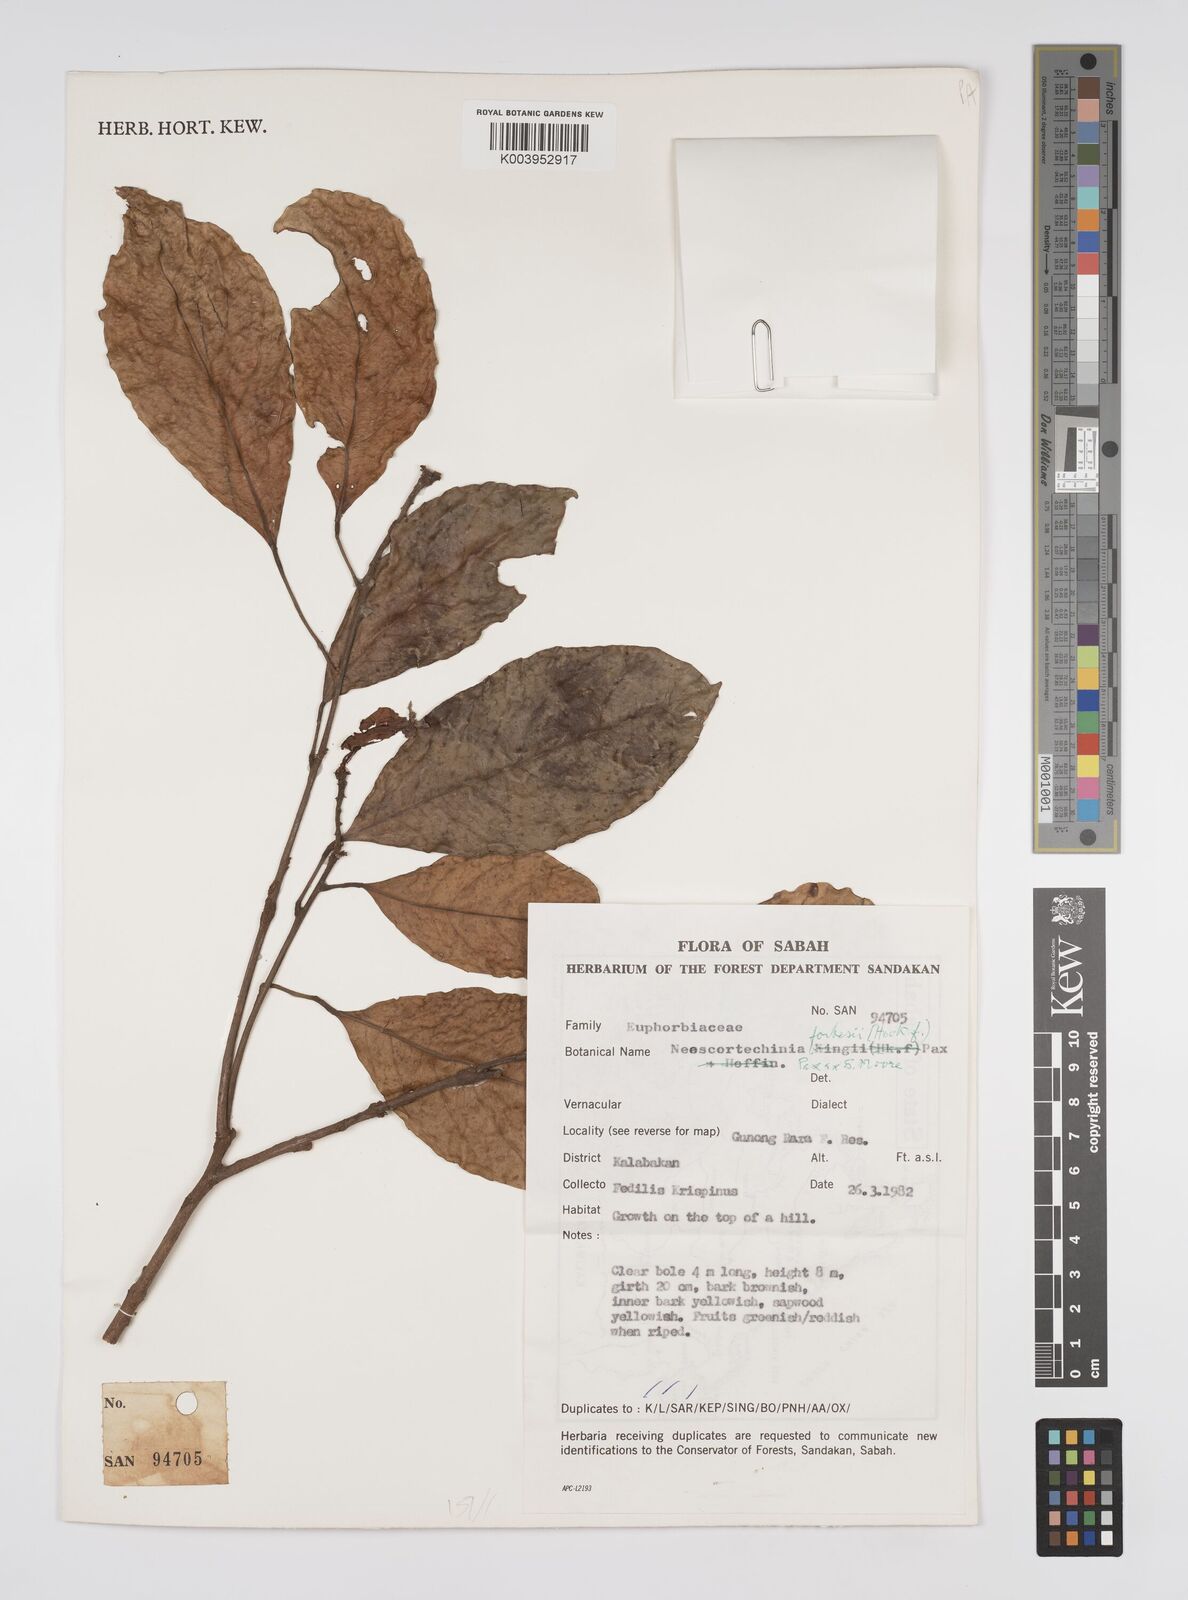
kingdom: Plantae
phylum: Tracheophyta
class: Magnoliopsida
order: Malpighiales
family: Euphorbiaceae
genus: Neoscortechinia
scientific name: Neoscortechinia philippinensis
